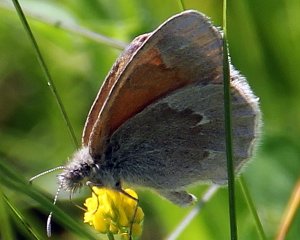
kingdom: Animalia
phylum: Arthropoda
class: Insecta
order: Lepidoptera
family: Nymphalidae
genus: Coenonympha
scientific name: Coenonympha tullia
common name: Large Heath
